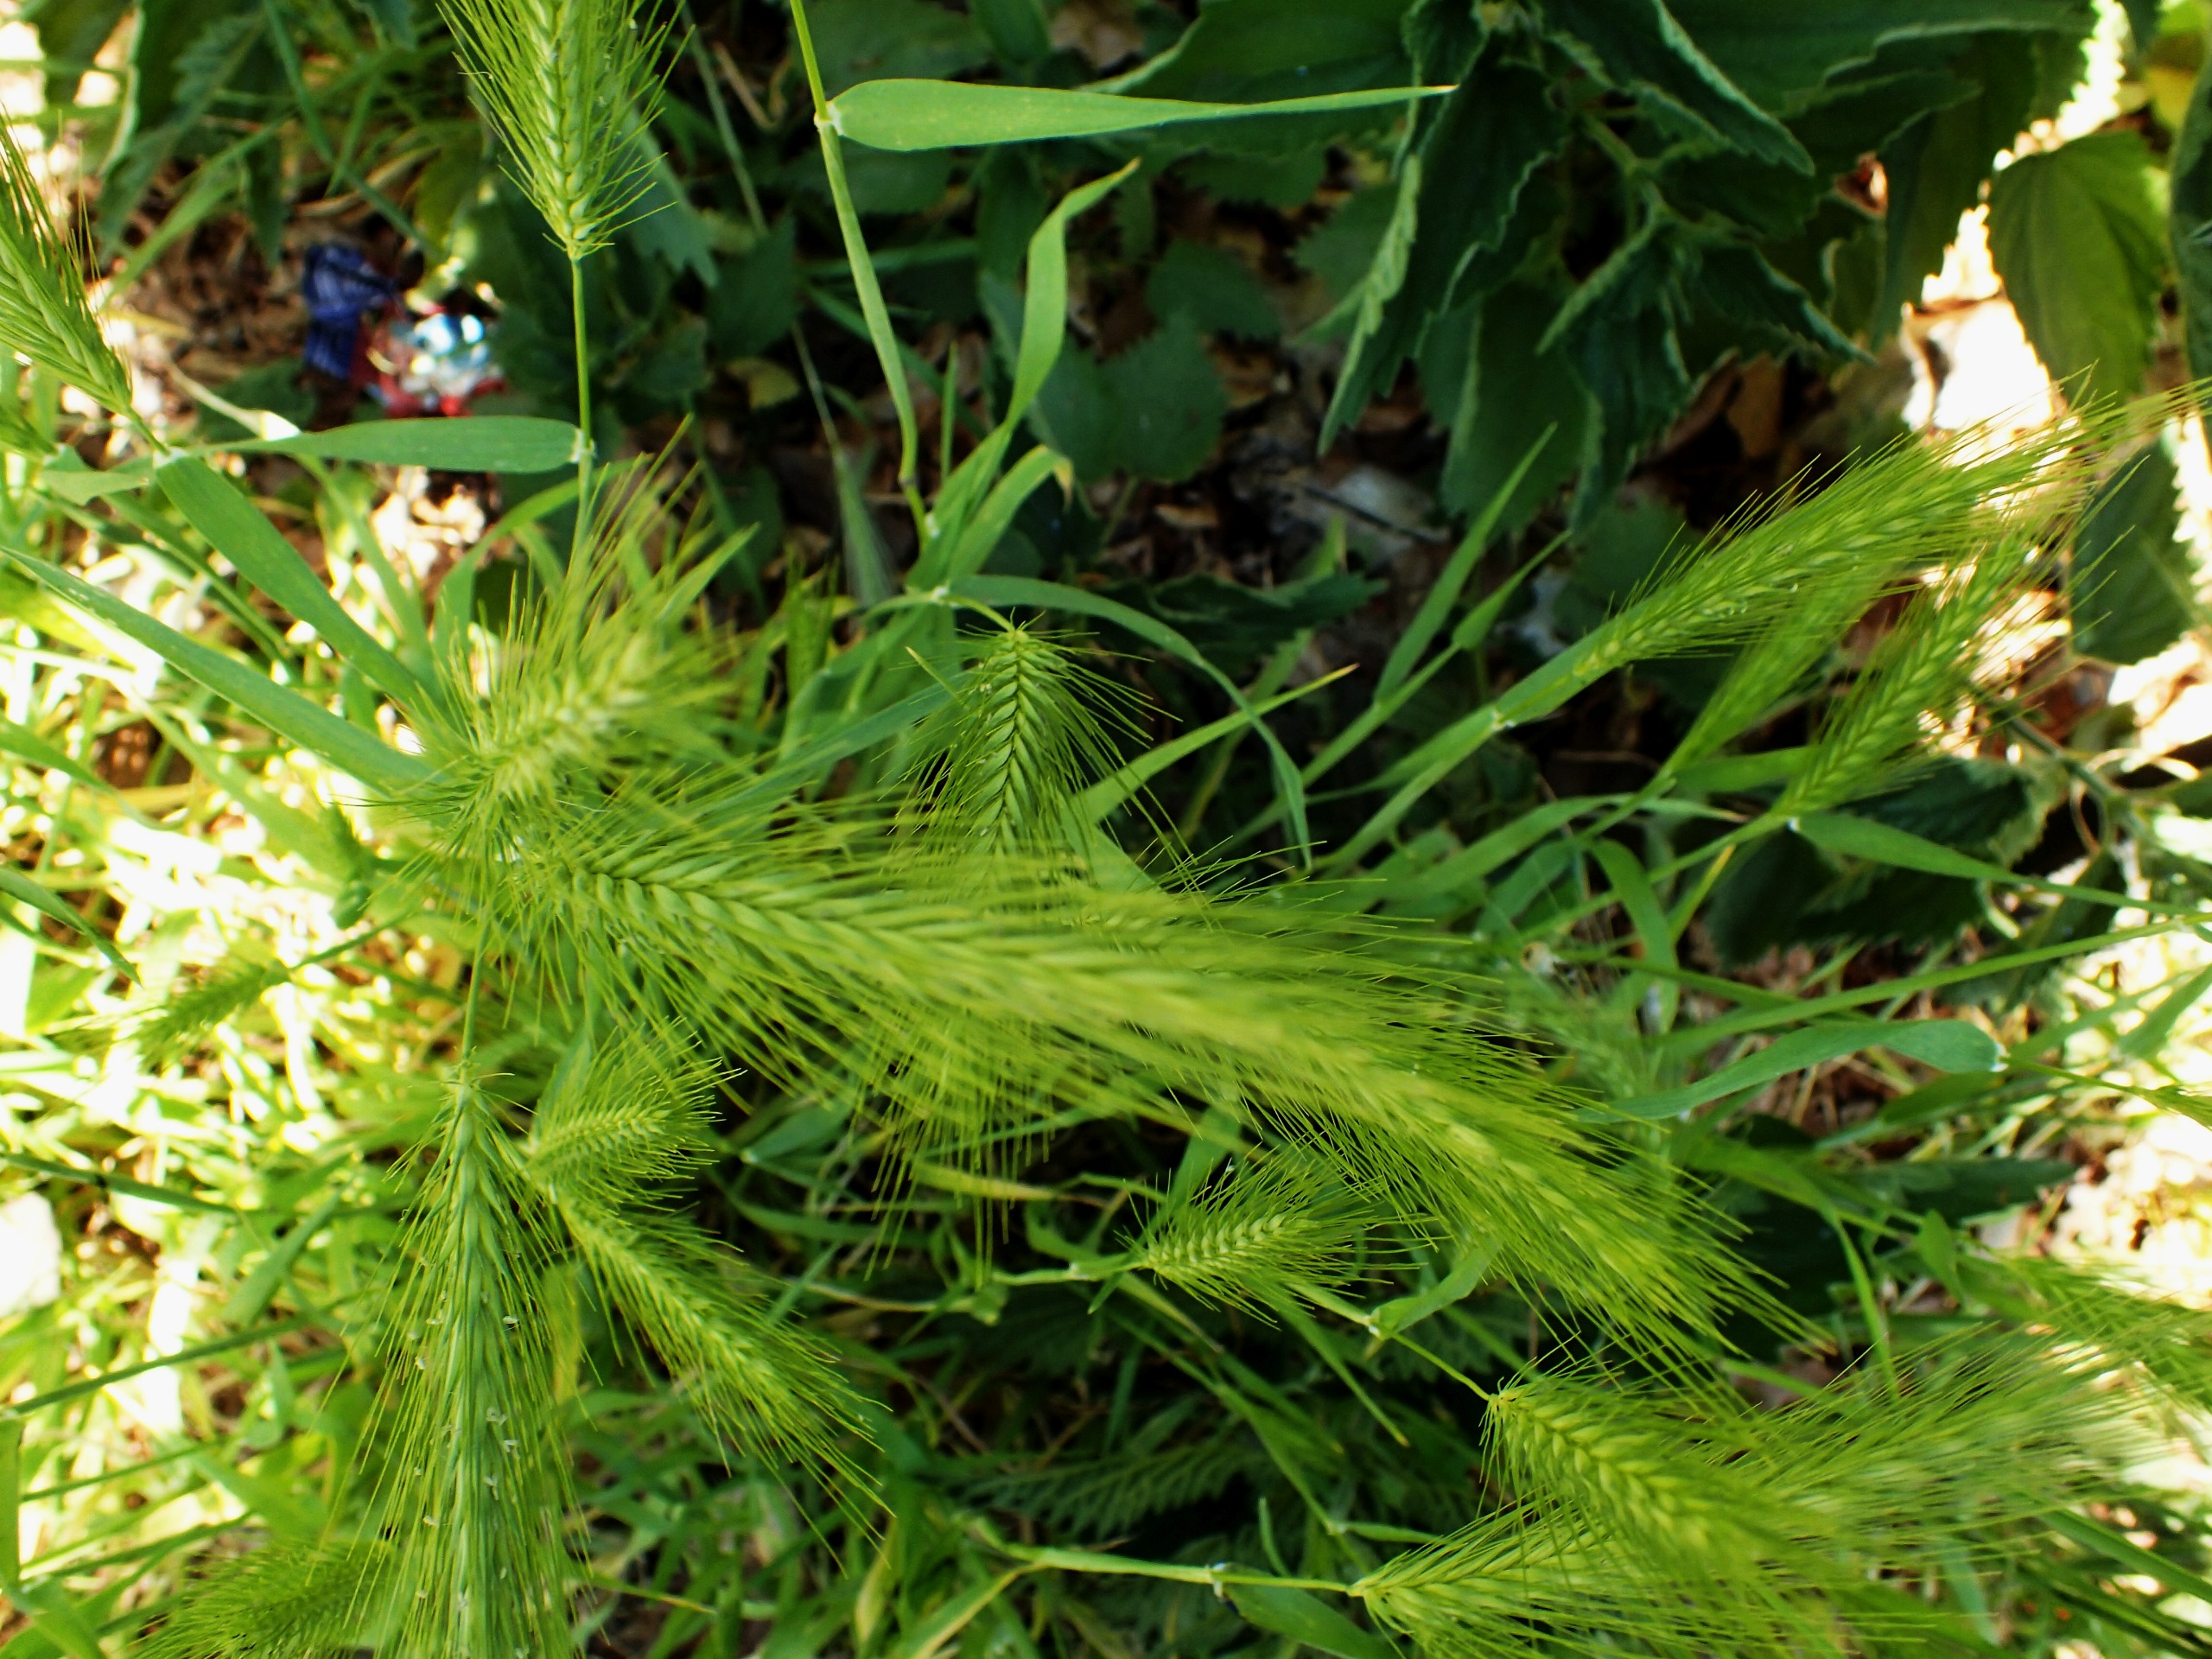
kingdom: Plantae
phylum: Tracheophyta
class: Liliopsida
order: Poales
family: Poaceae
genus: Hordeum
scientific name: Hordeum murinum
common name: Gold byg
